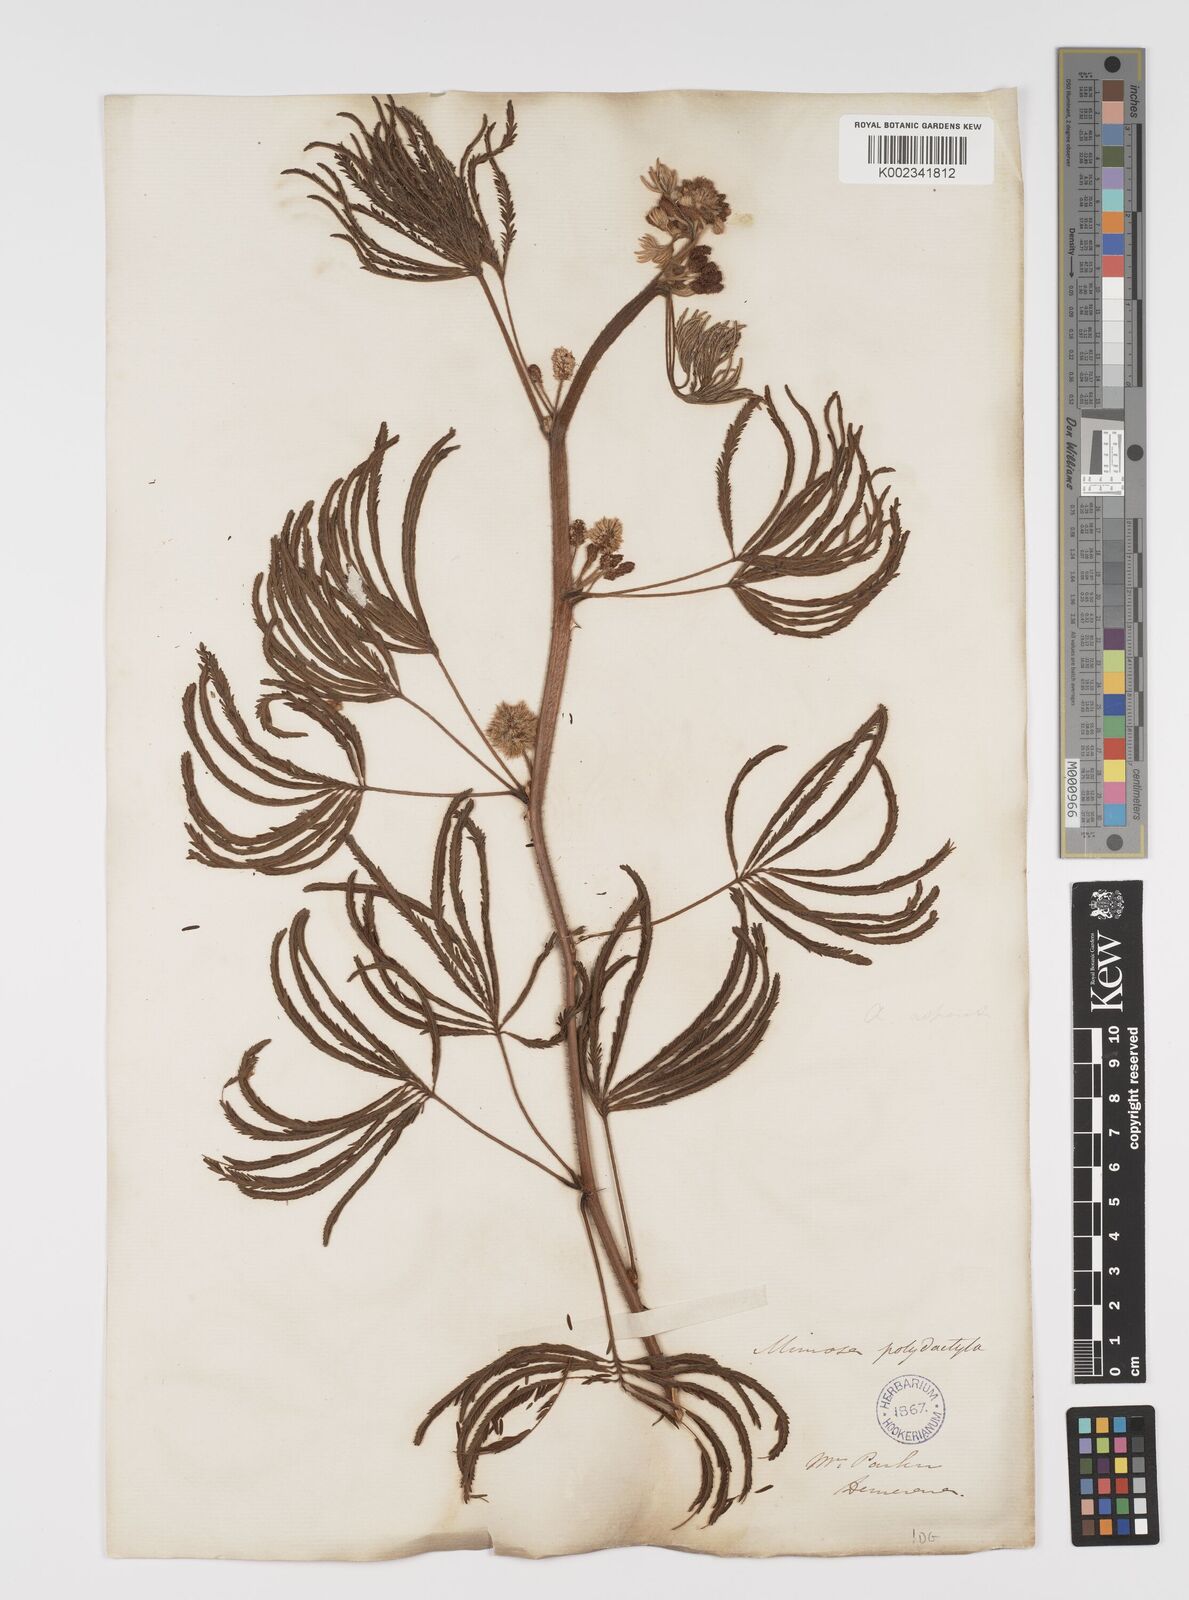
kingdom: Plantae
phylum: Tracheophyta
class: Magnoliopsida
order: Fabales
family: Fabaceae
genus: Mimosa
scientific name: Mimosa polydactyla
